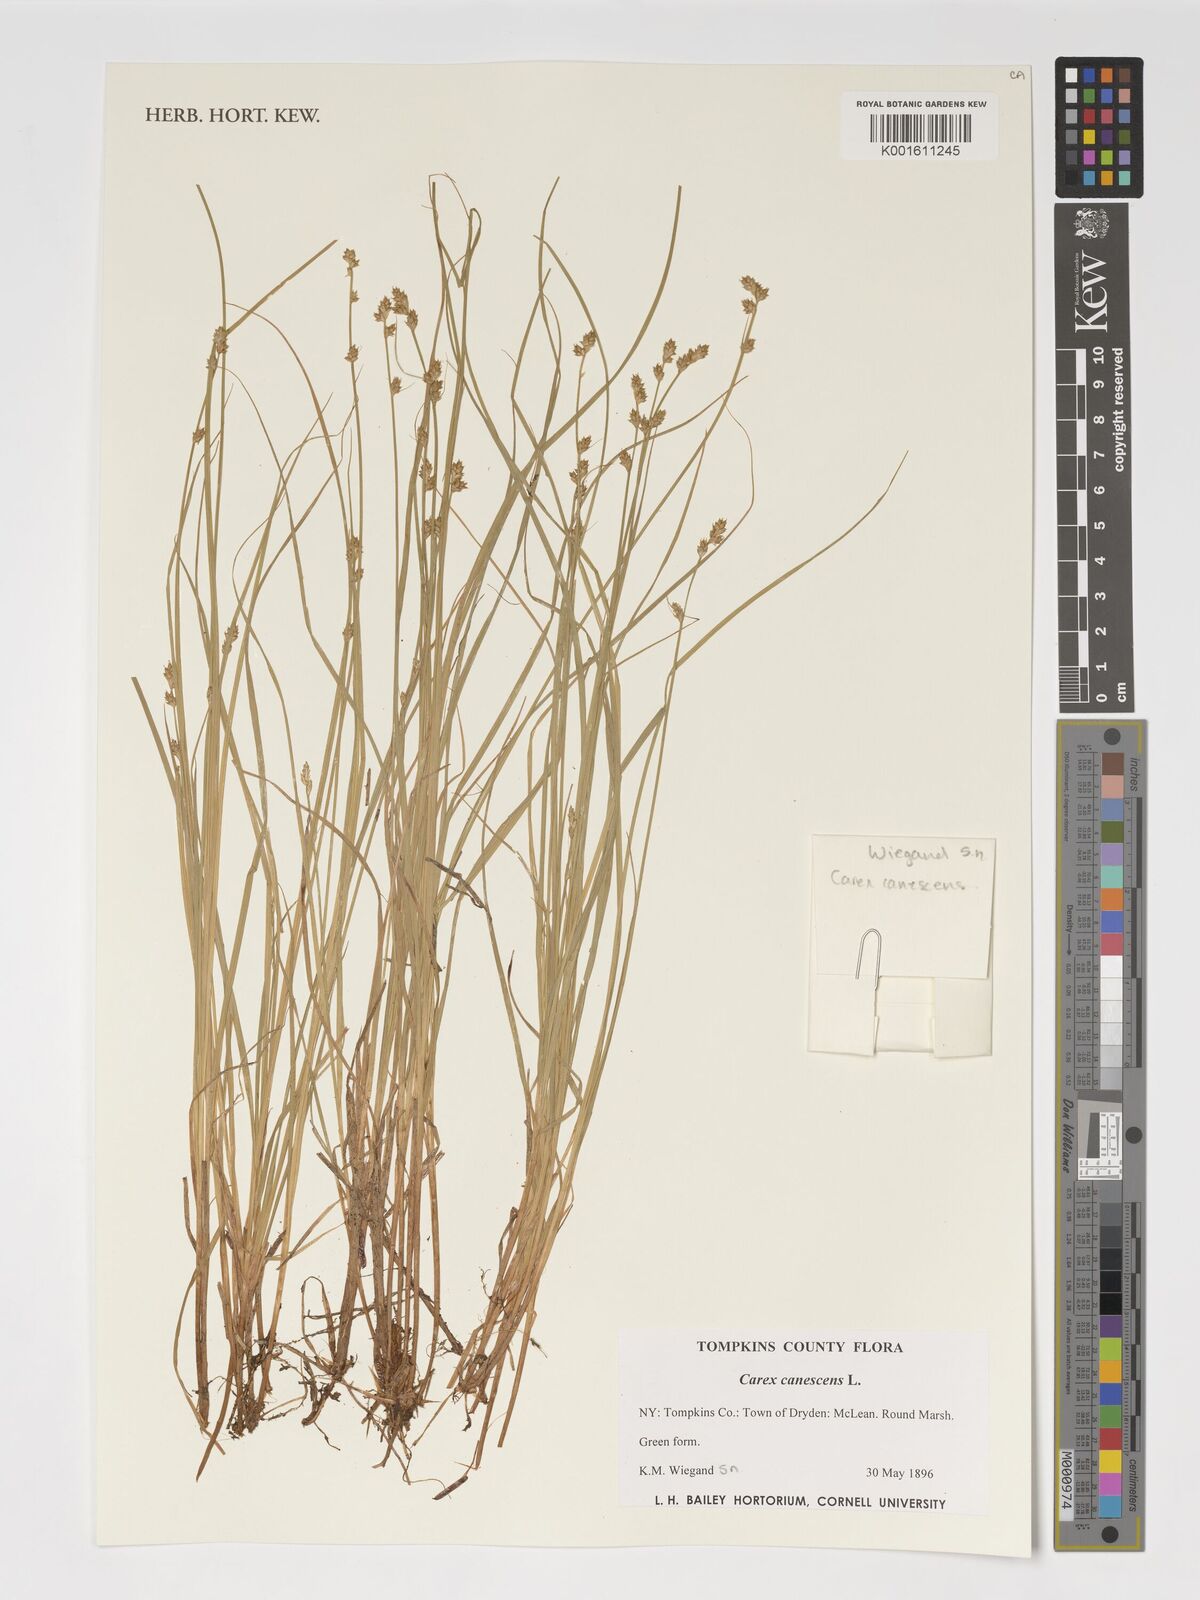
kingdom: Plantae
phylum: Tracheophyta
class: Liliopsida
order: Poales
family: Cyperaceae
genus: Carex
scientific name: Carex canescens
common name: White sedge
